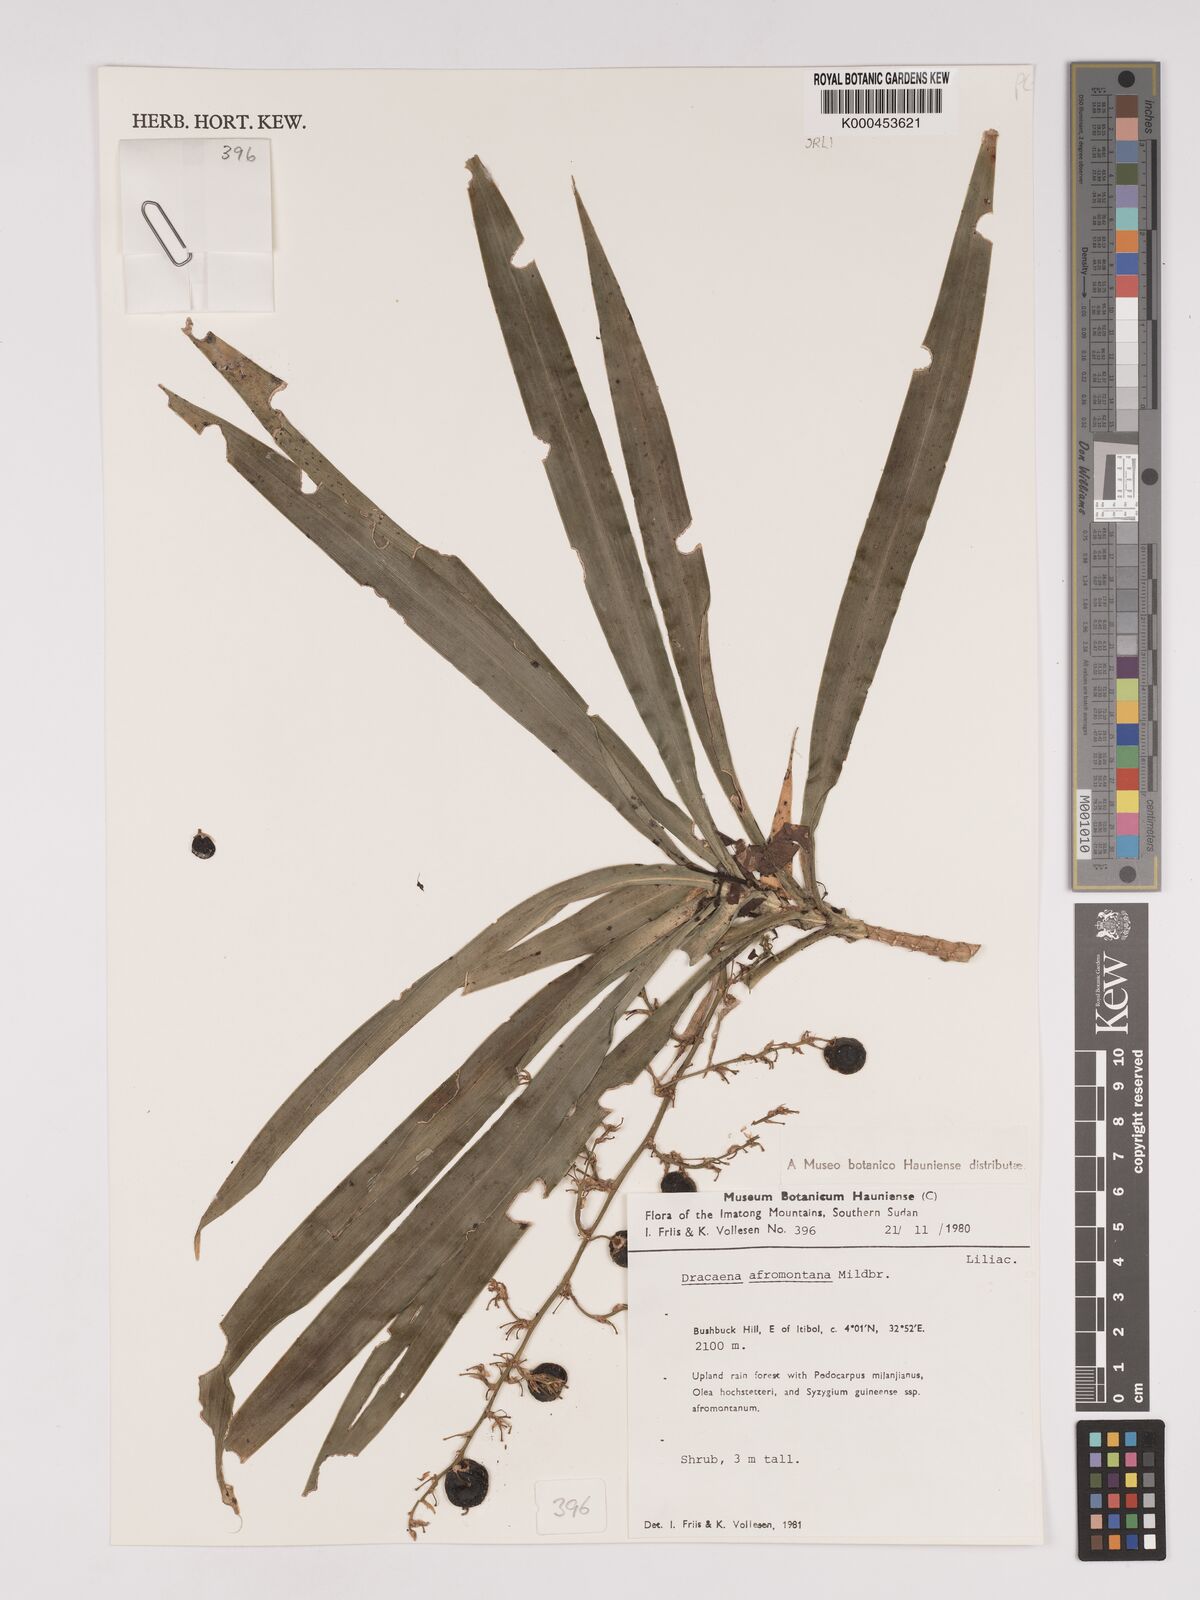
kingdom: Plantae
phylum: Tracheophyta
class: Liliopsida
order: Asparagales
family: Asparagaceae
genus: Dracaena
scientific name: Dracaena afromontana
